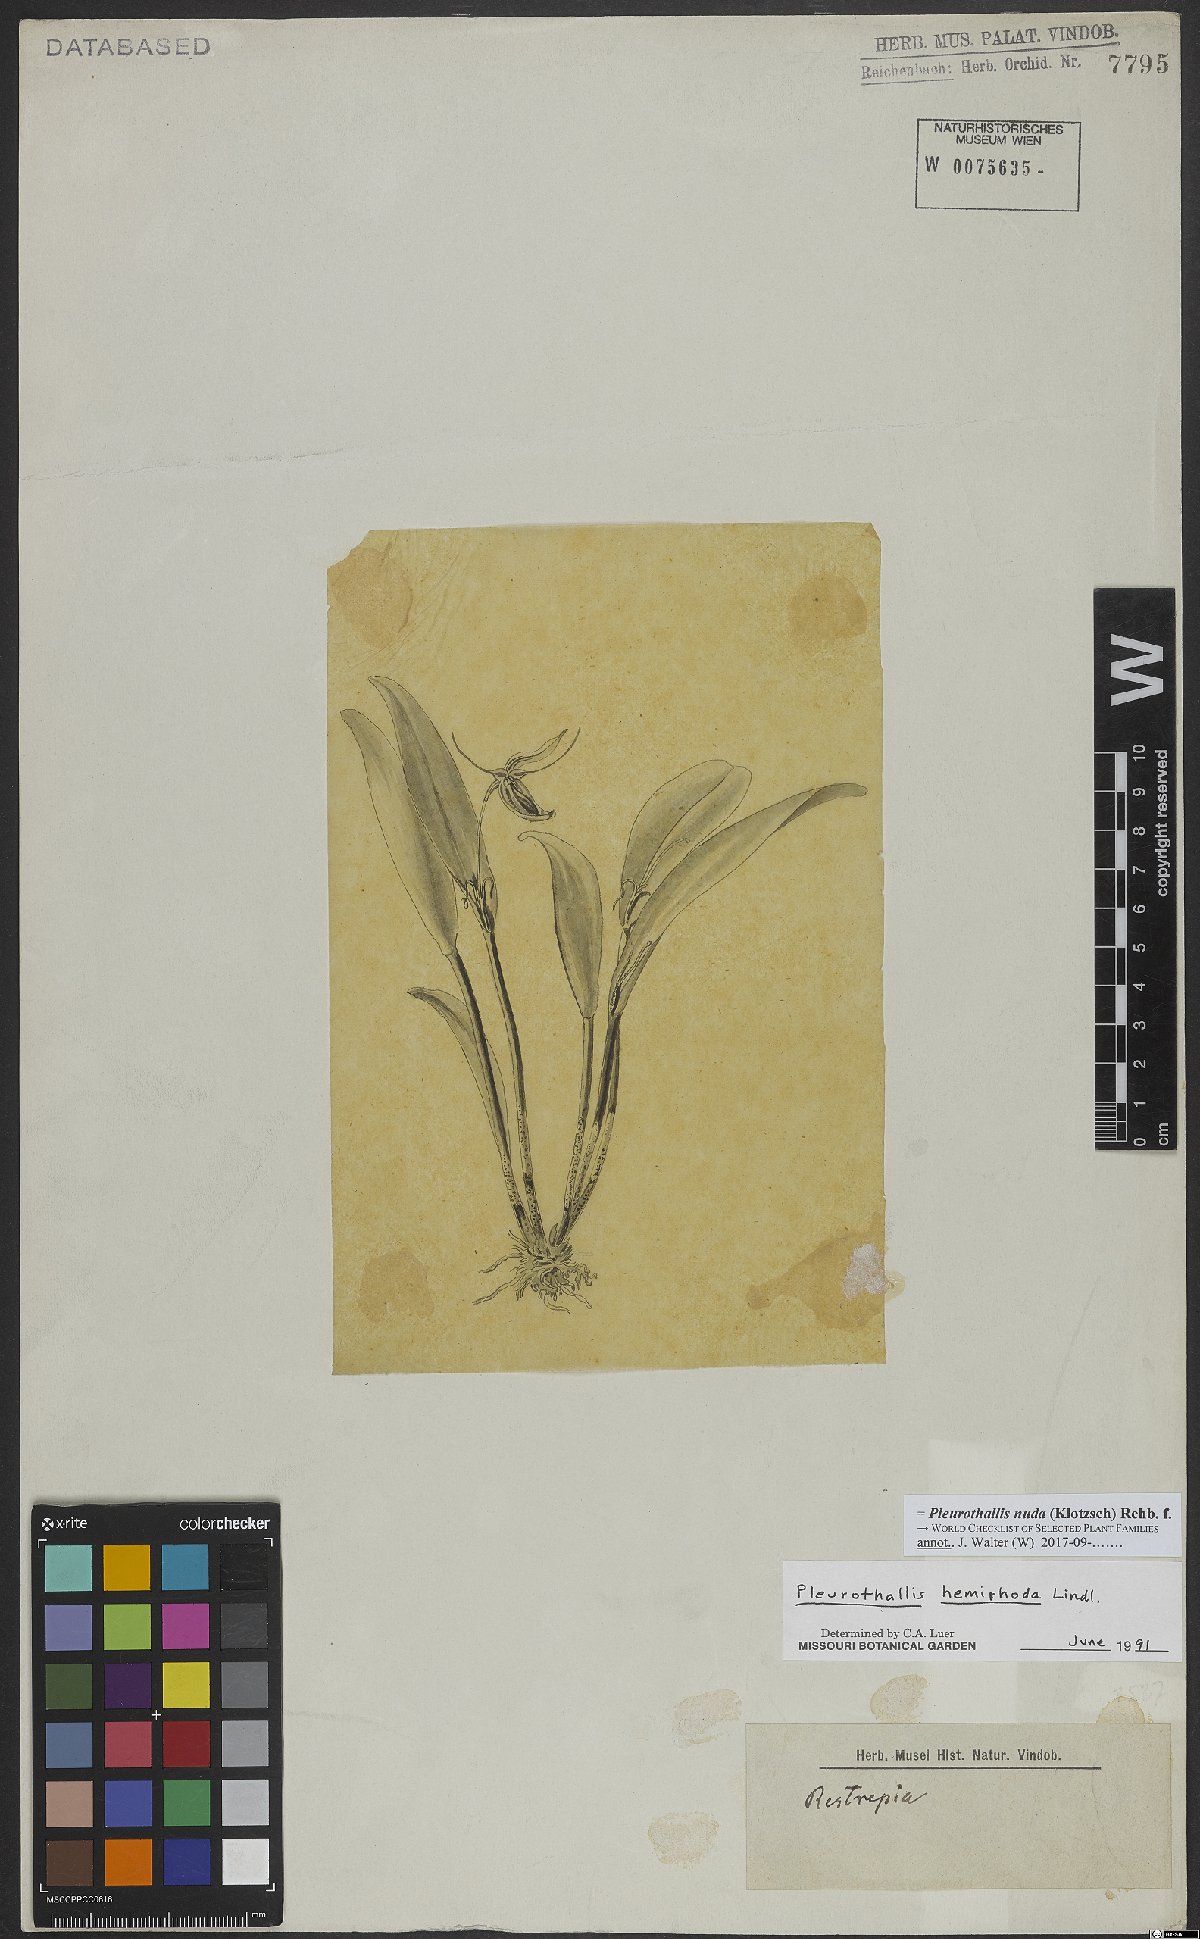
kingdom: Plantae
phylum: Tracheophyta
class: Liliopsida
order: Asparagales
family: Orchidaceae
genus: Pleurothallis
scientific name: Pleurothallis nuda
